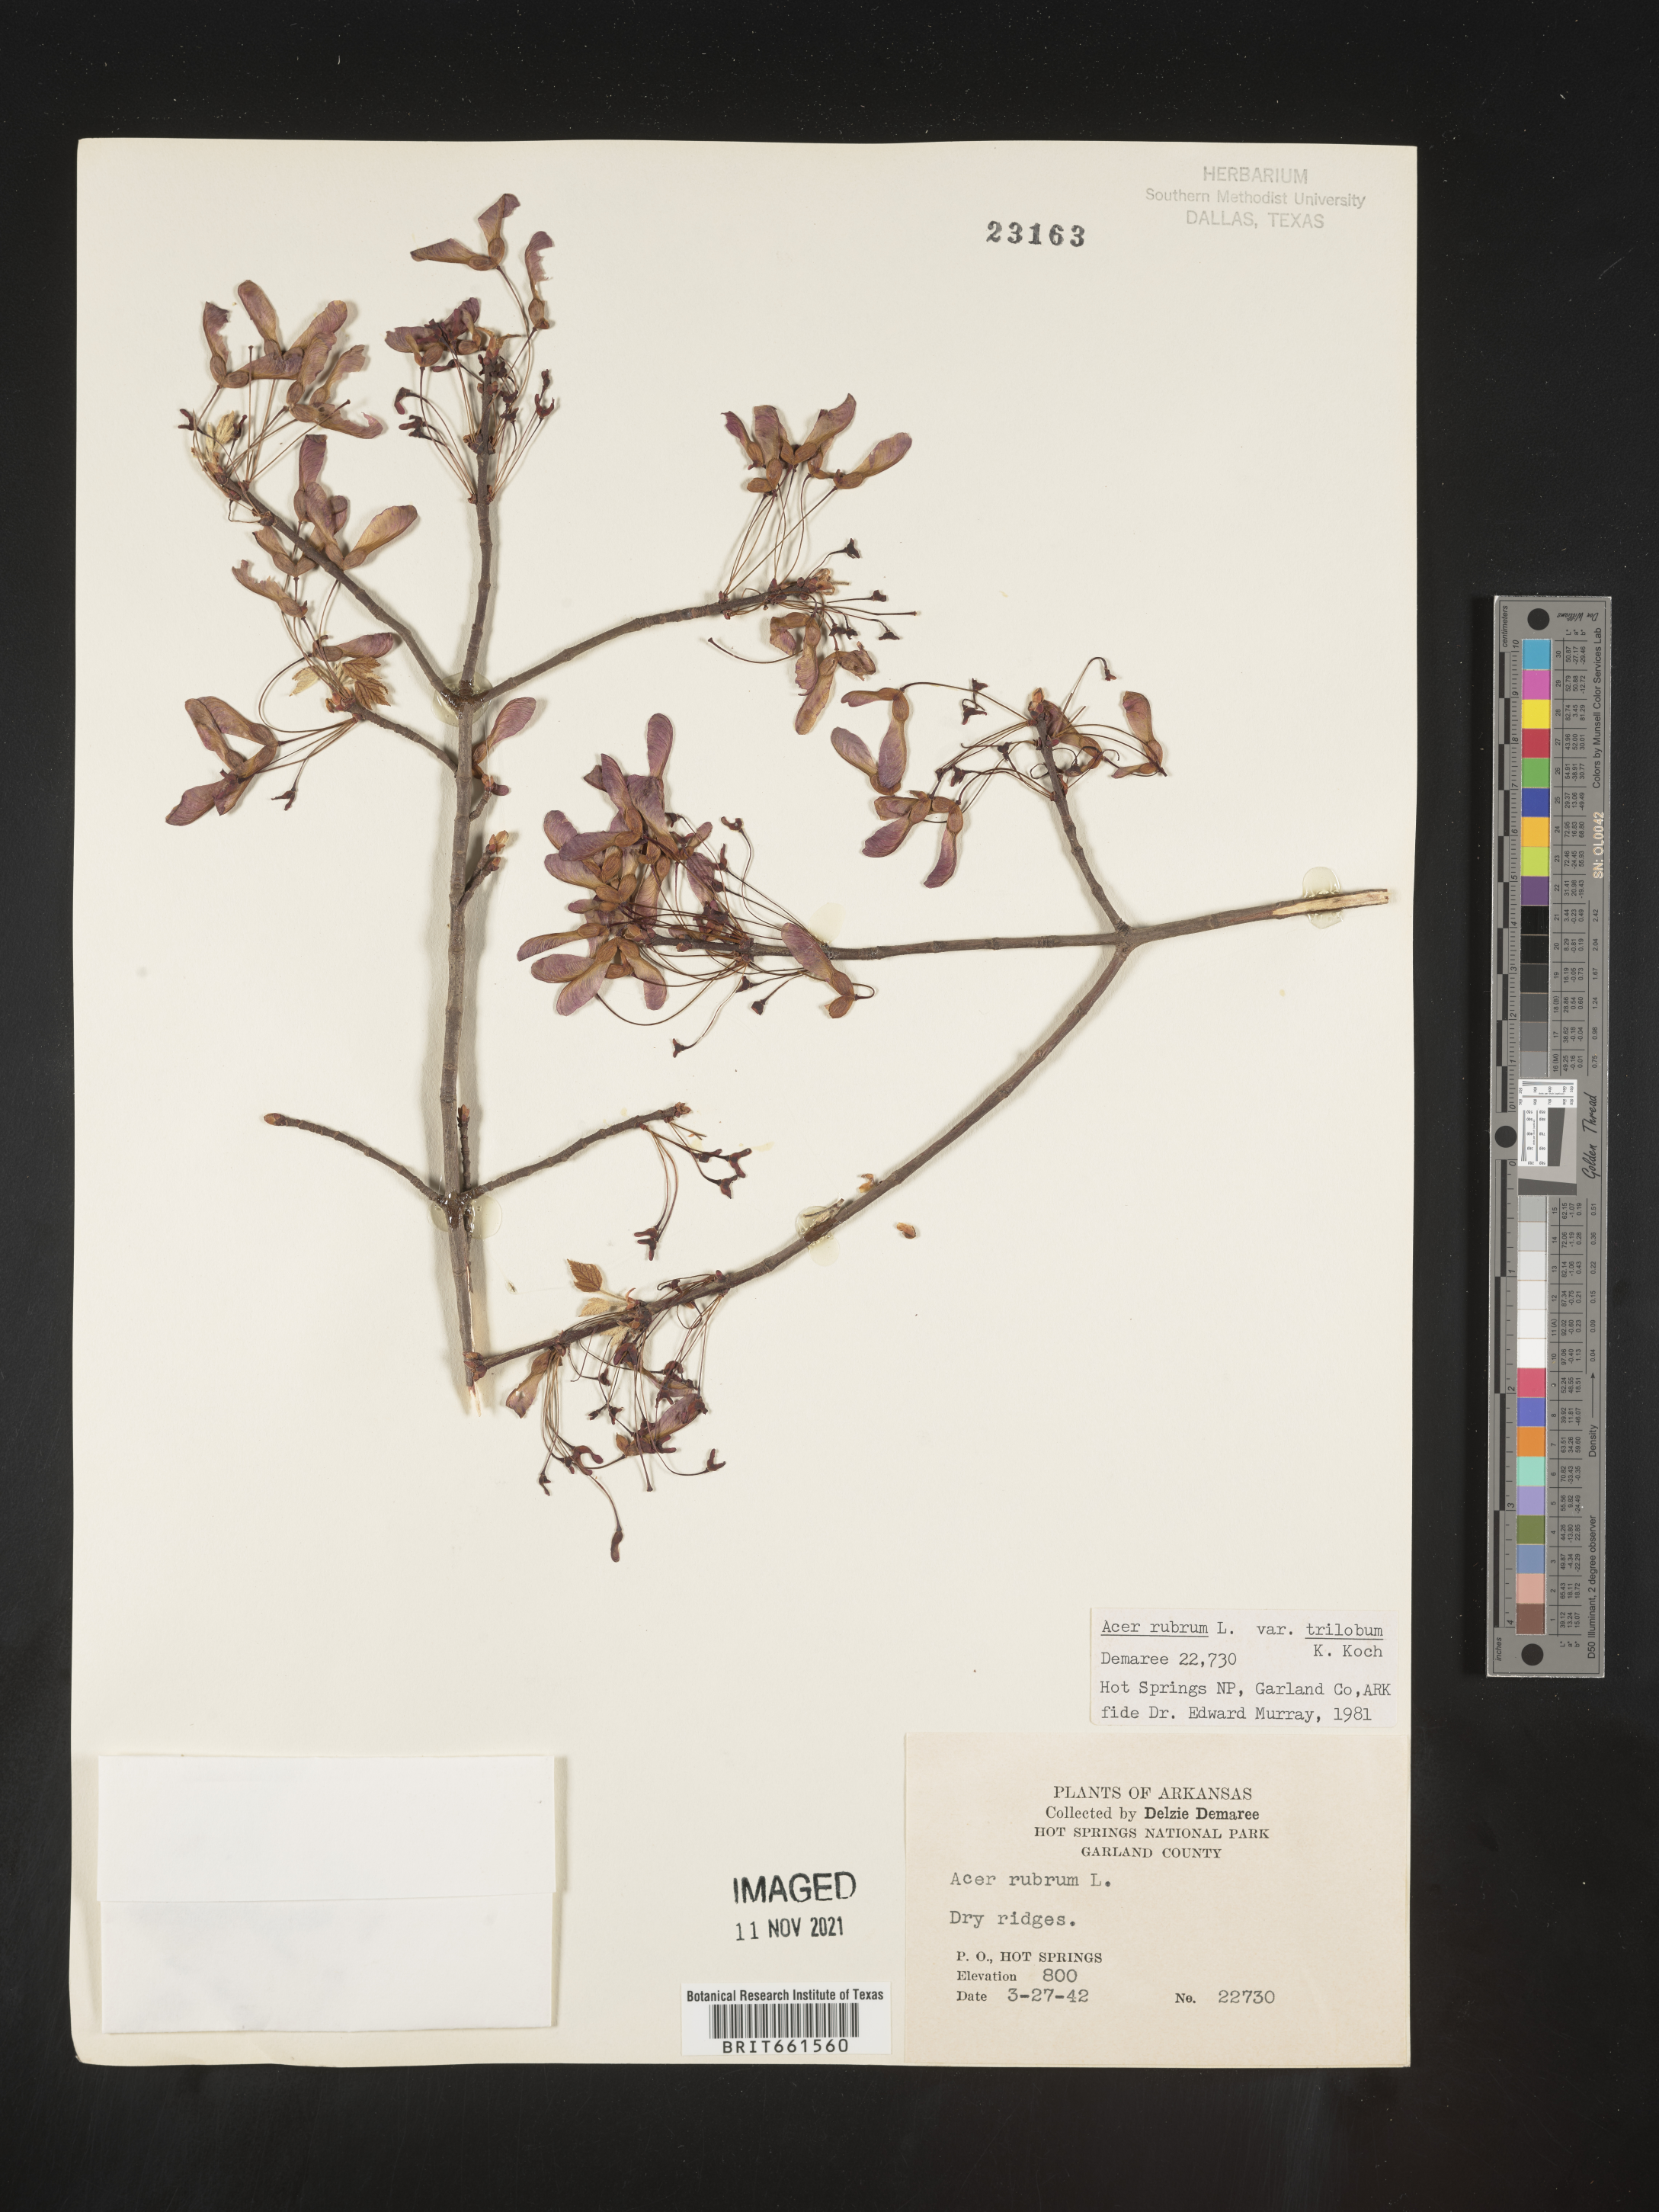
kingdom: Plantae
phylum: Tracheophyta
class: Magnoliopsida
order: Sapindales
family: Sapindaceae
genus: Acer
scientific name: Acer rubrum
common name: Red maple
